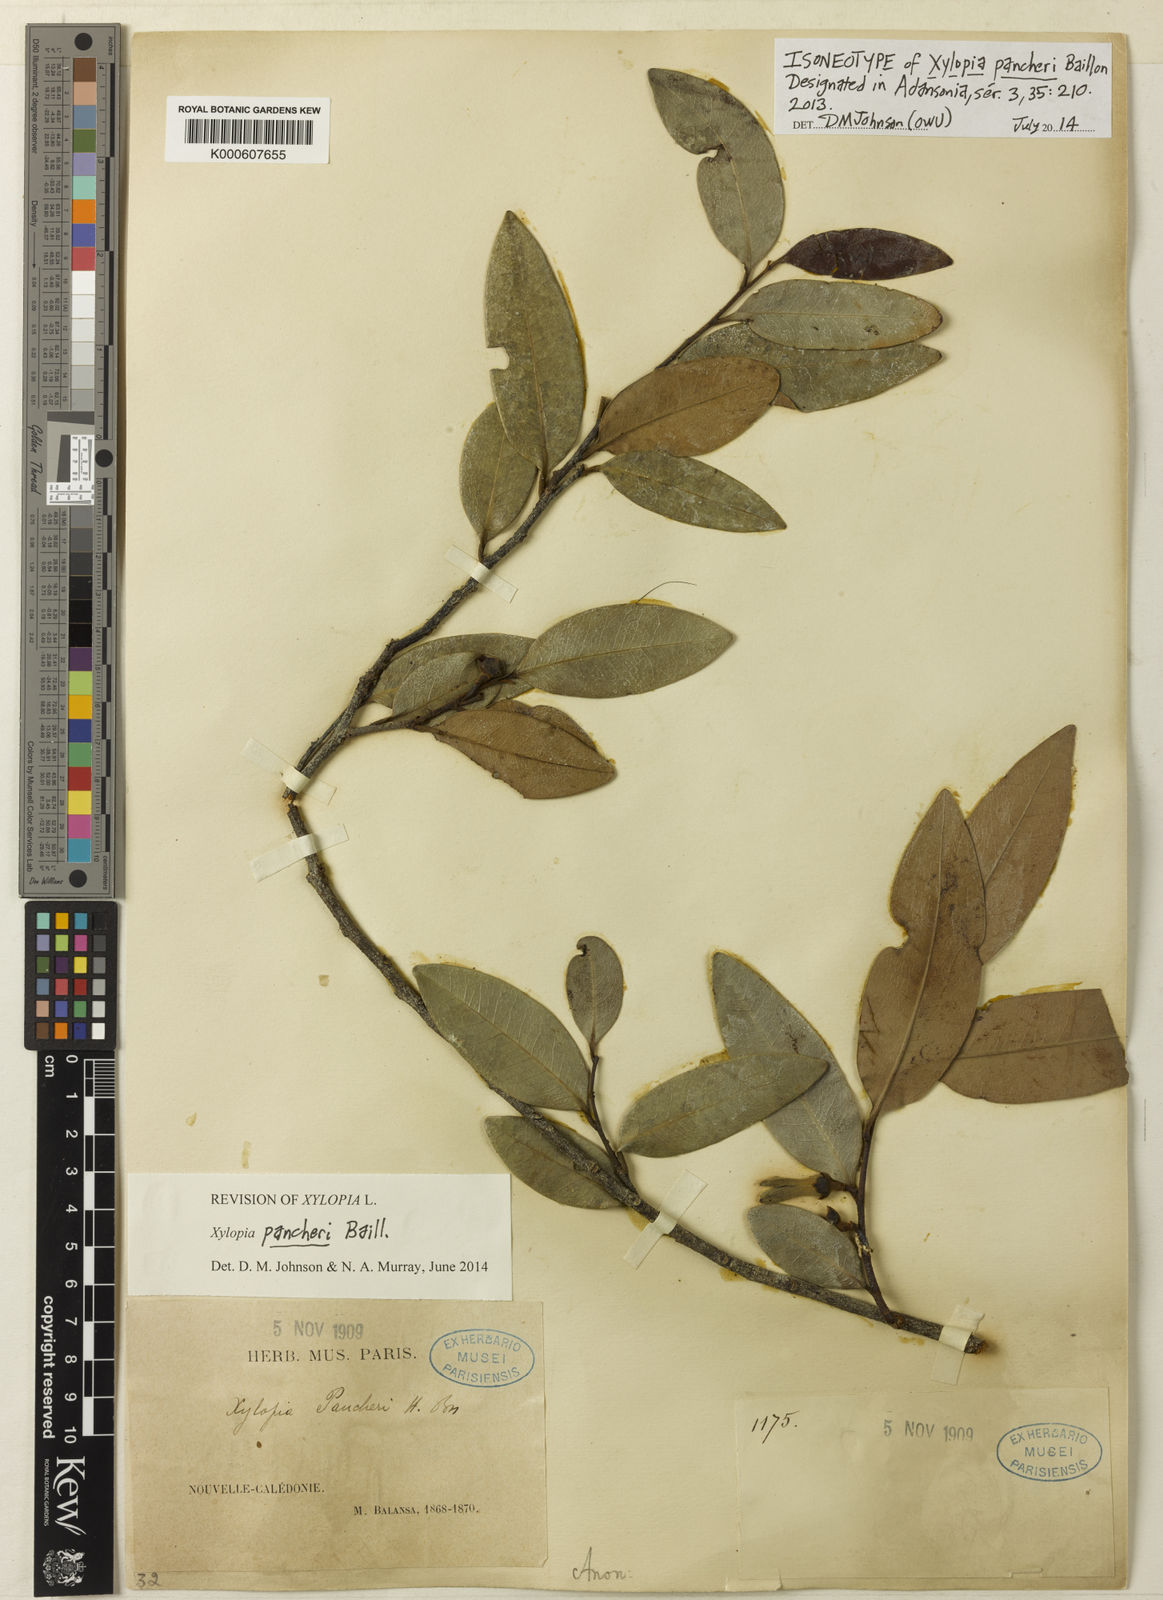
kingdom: Plantae
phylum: Tracheophyta
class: Magnoliopsida
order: Magnoliales
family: Annonaceae
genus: Xylopia
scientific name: Xylopia pancheri
